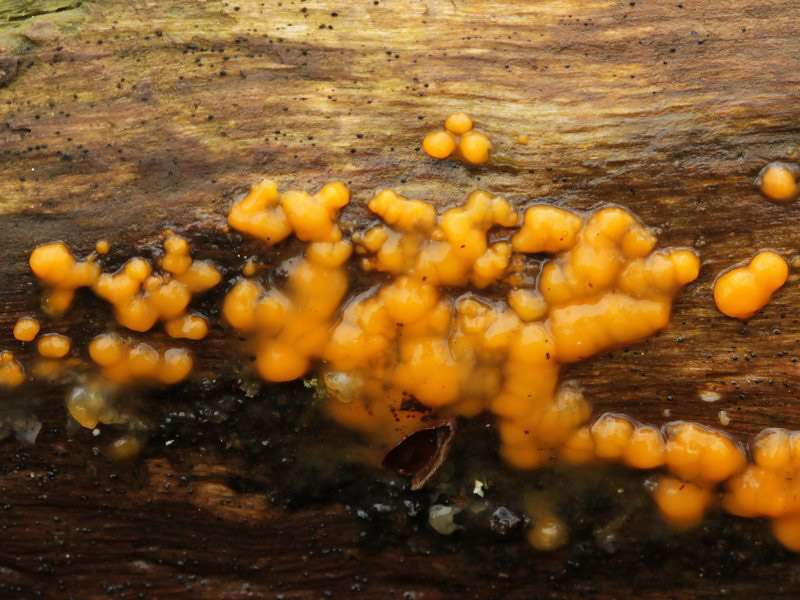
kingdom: Fungi
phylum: Basidiomycota
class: Dacrymycetes
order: Dacrymycetales
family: Dacrymycetaceae
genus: Dacrymyces
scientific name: Dacrymyces stillatus
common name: almindelig tåresvamp
